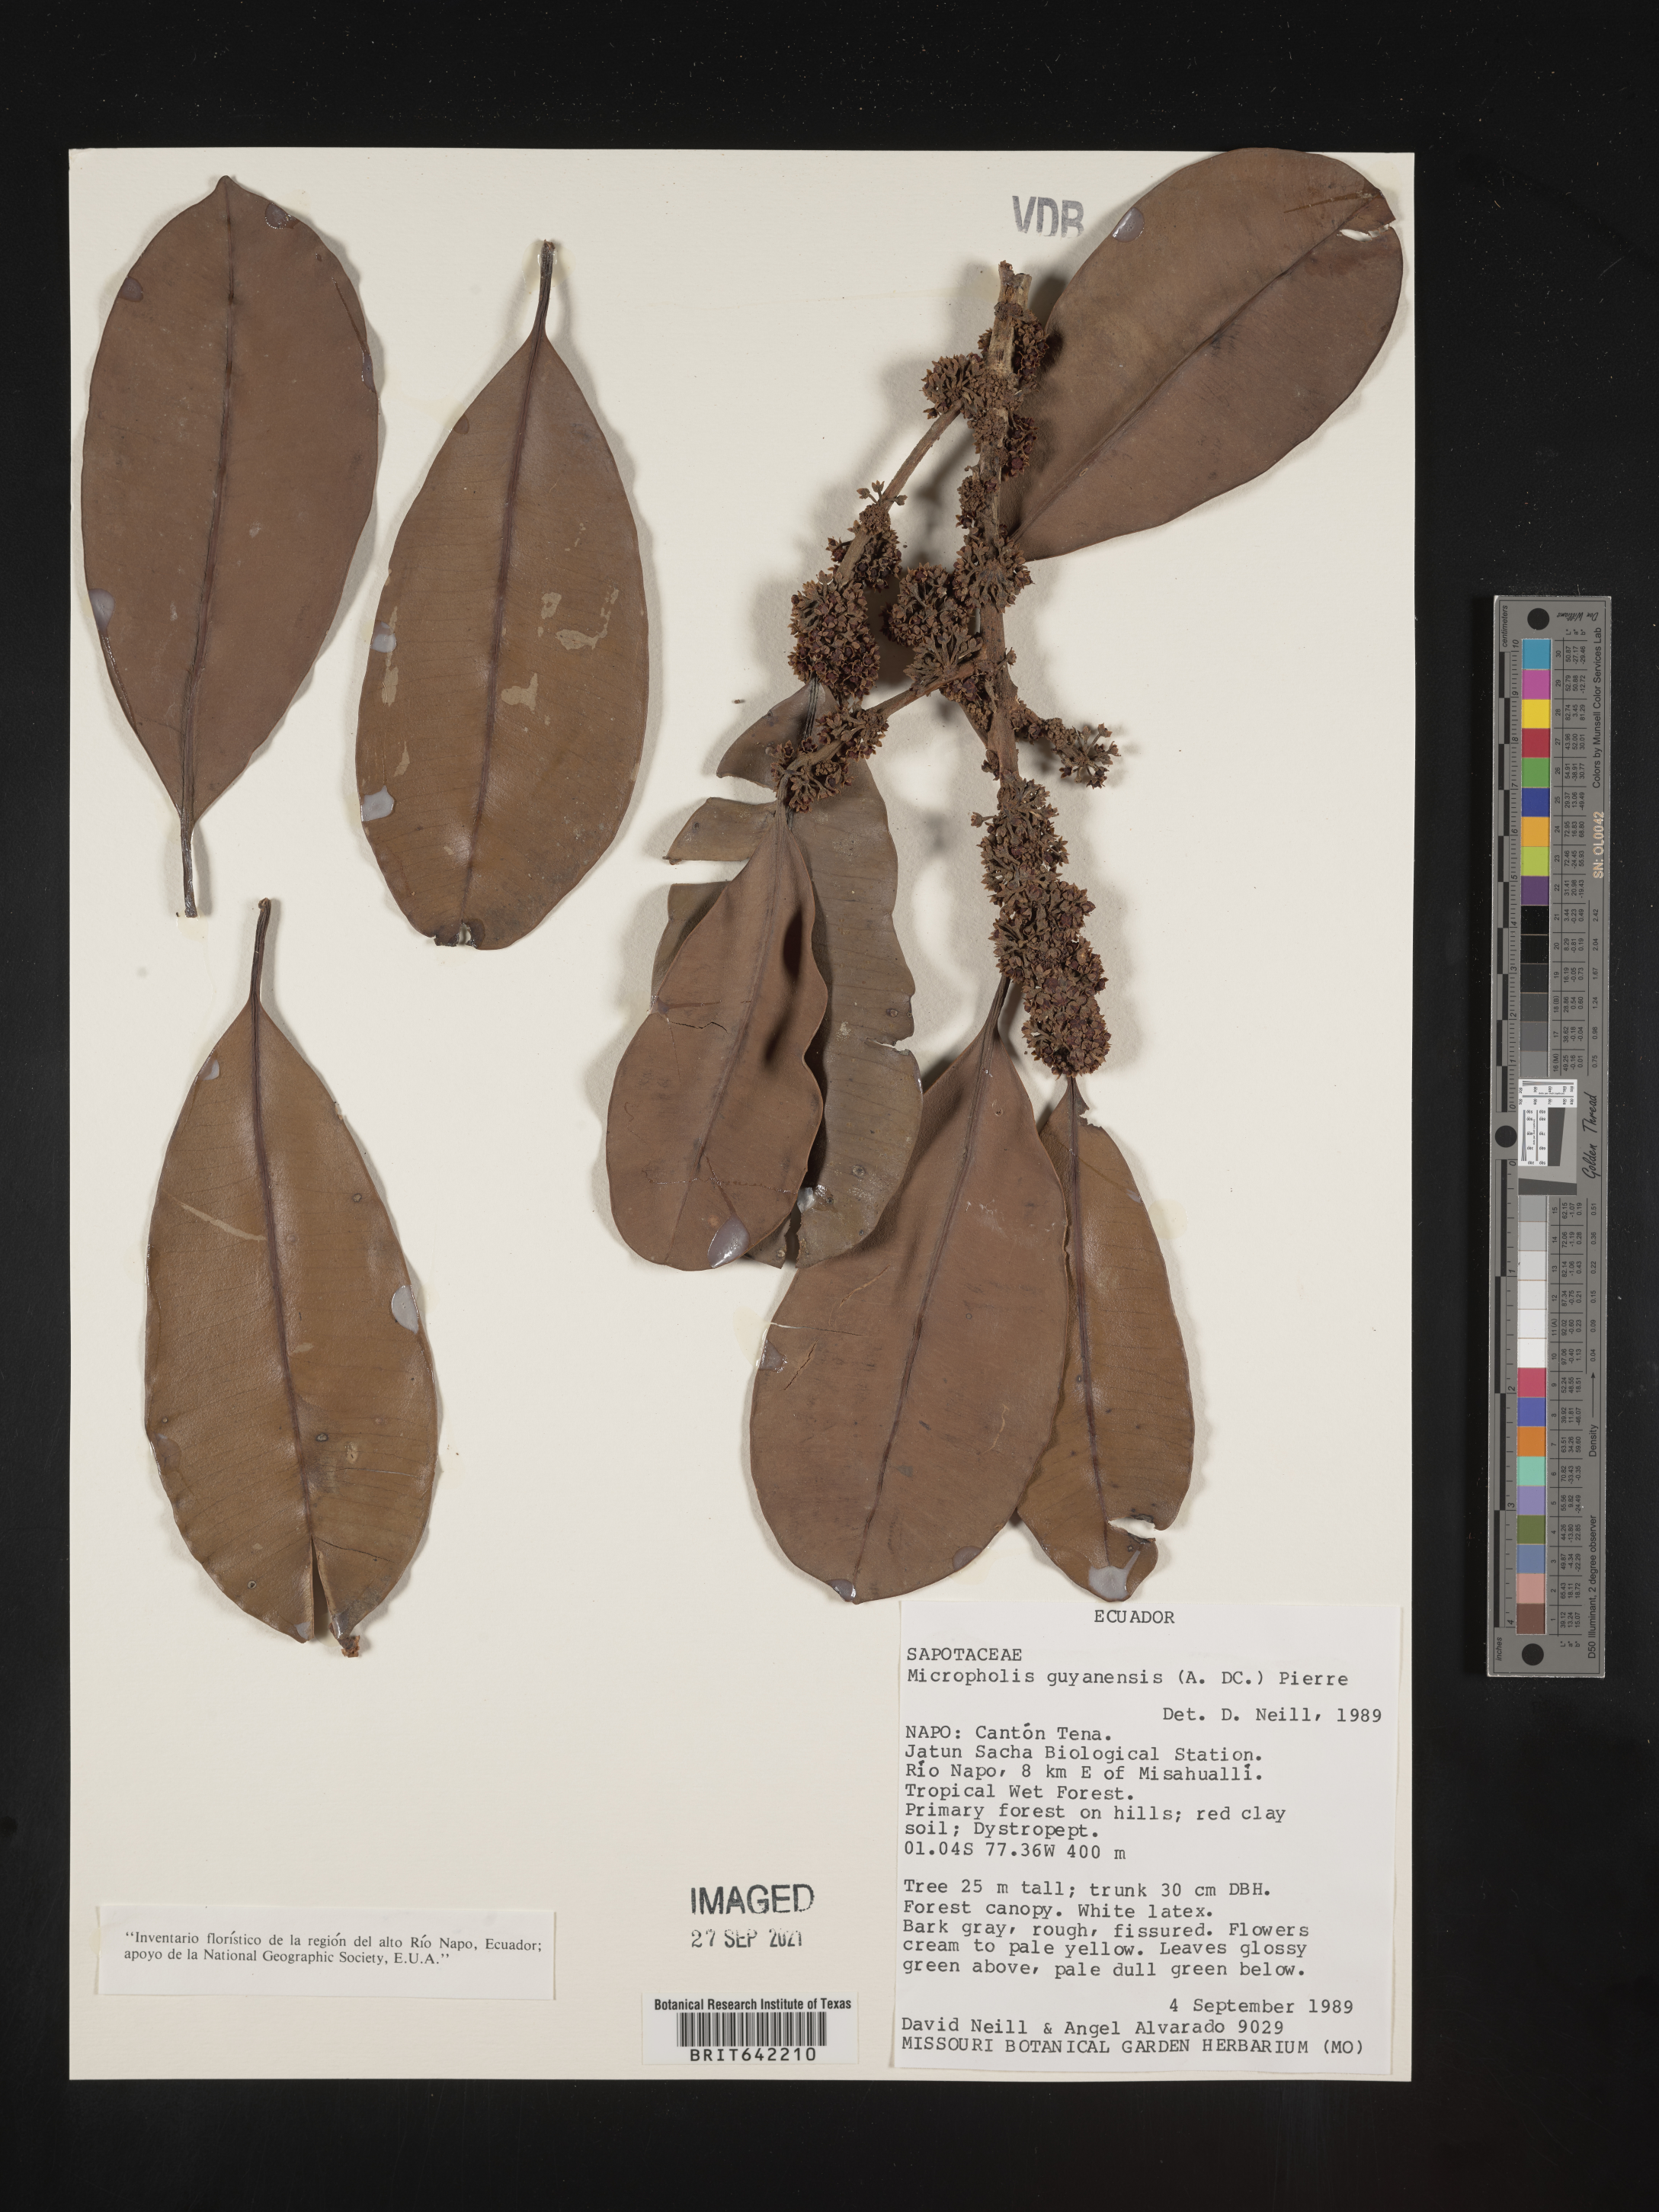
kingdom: Plantae
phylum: Tracheophyta
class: Magnoliopsida
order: Ericales
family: Sapotaceae
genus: Micropholis
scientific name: Micropholis
